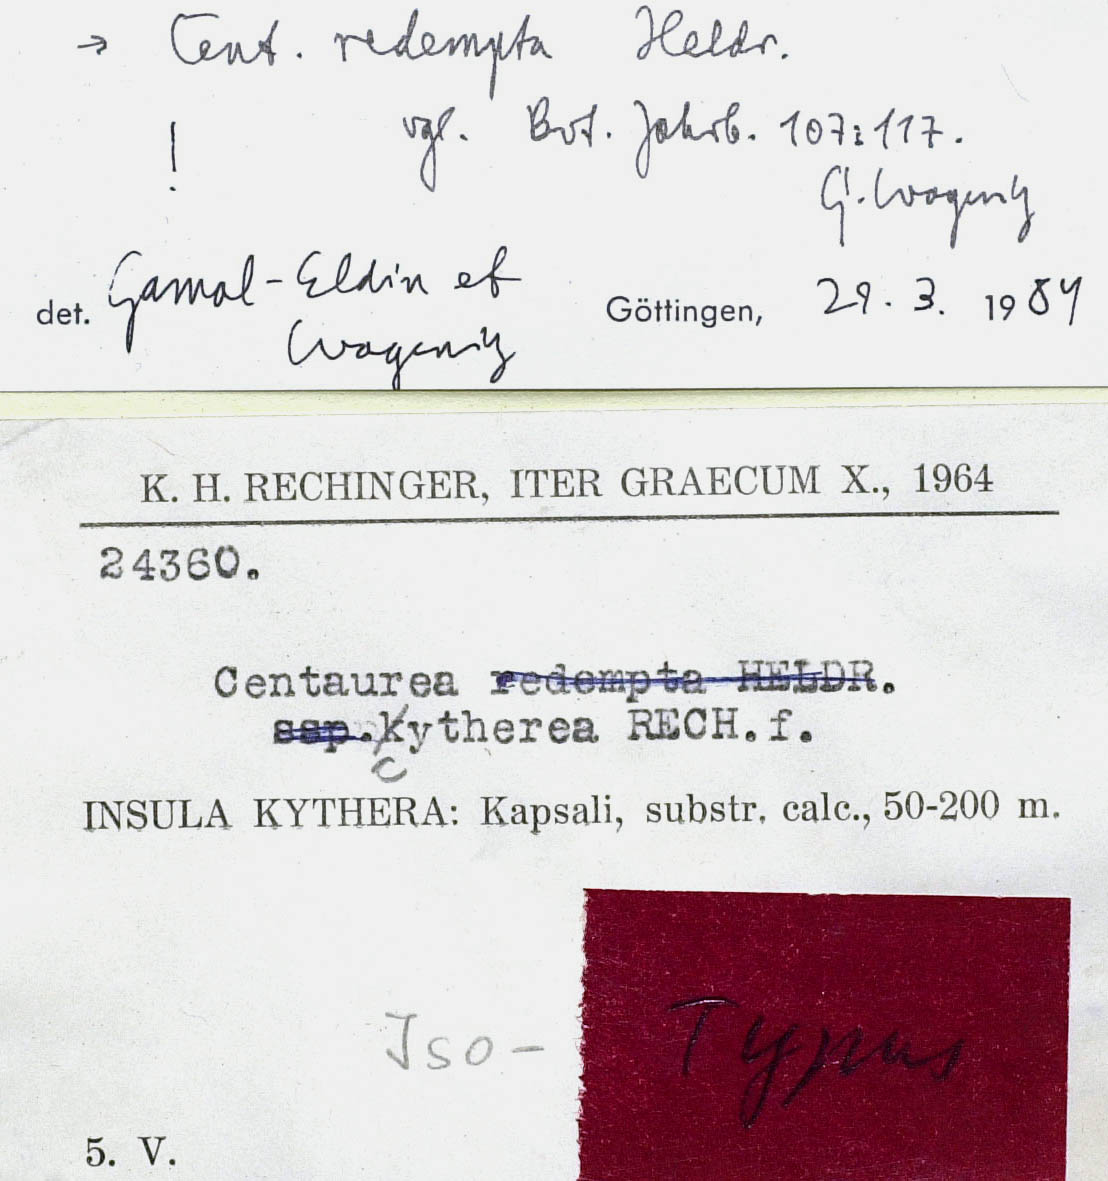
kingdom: Plantae
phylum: Tracheophyta
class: Magnoliopsida
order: Asterales
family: Asteraceae
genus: Centaurea
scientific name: Centaurea redempta
